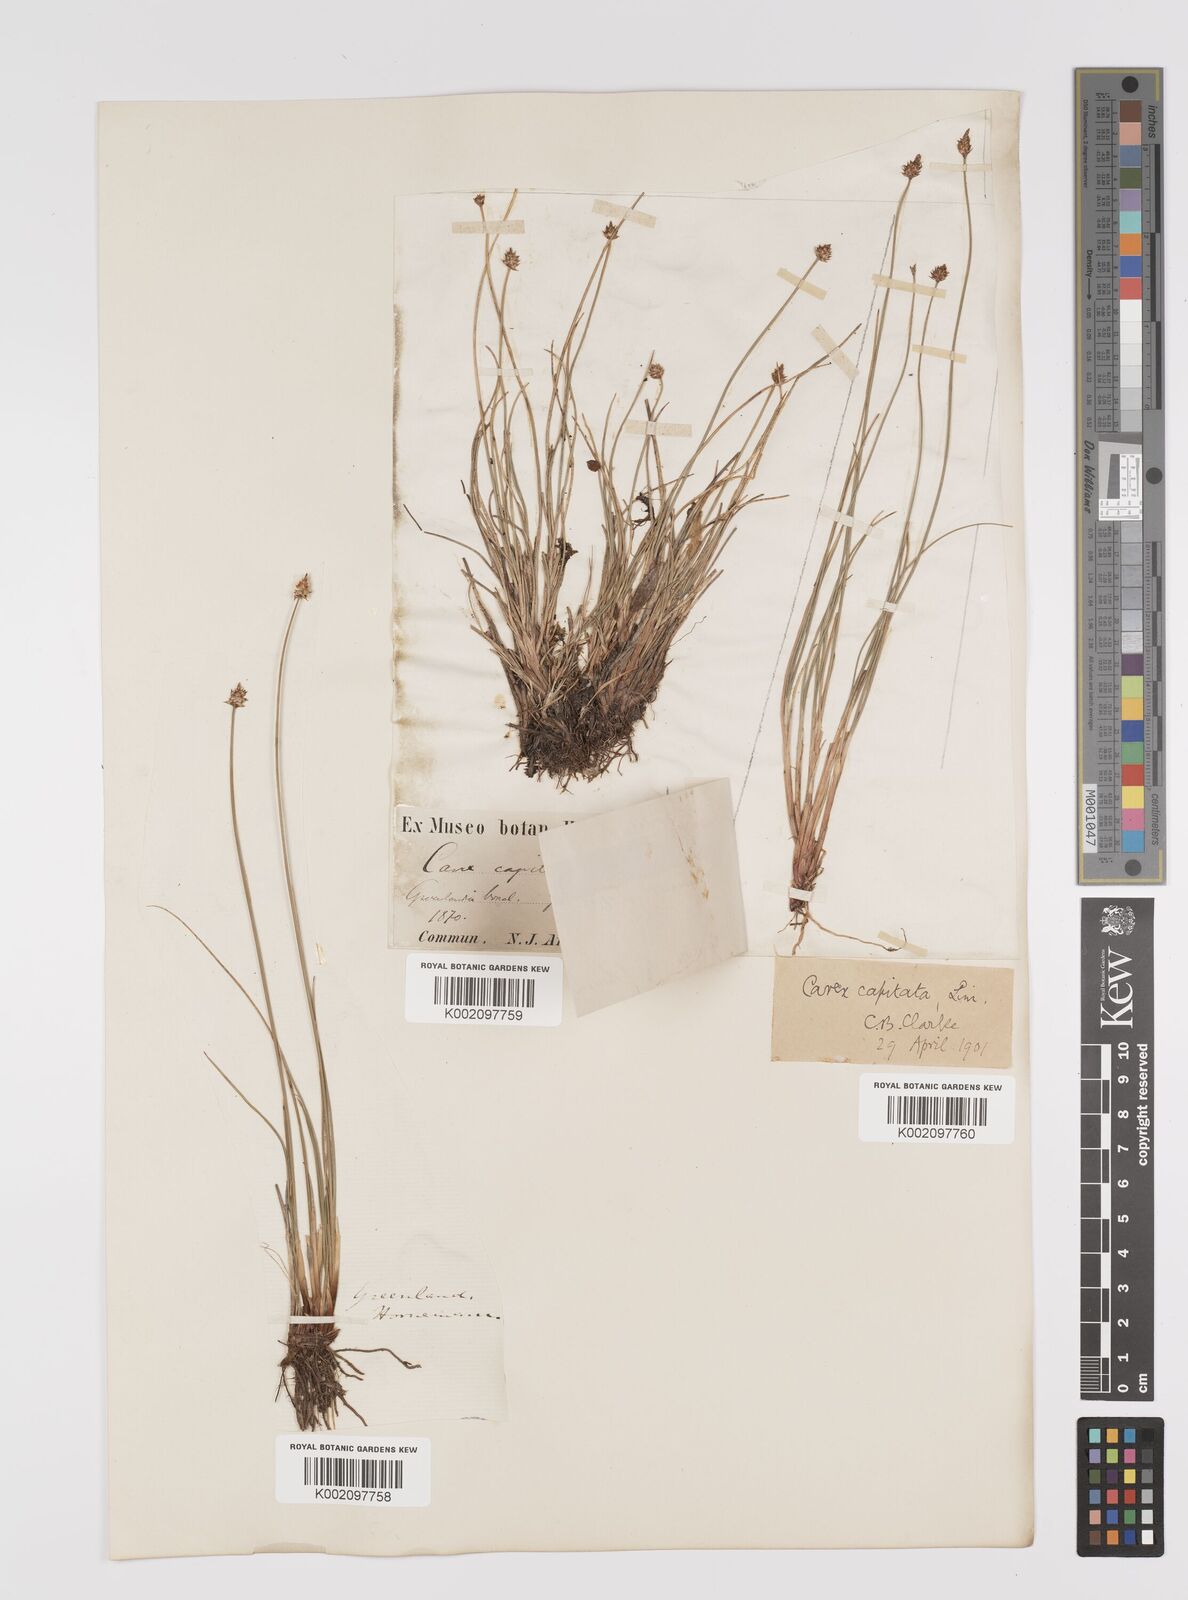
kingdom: Plantae
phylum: Tracheophyta
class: Liliopsida
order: Poales
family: Cyperaceae
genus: Carex
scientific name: Carex capitata
